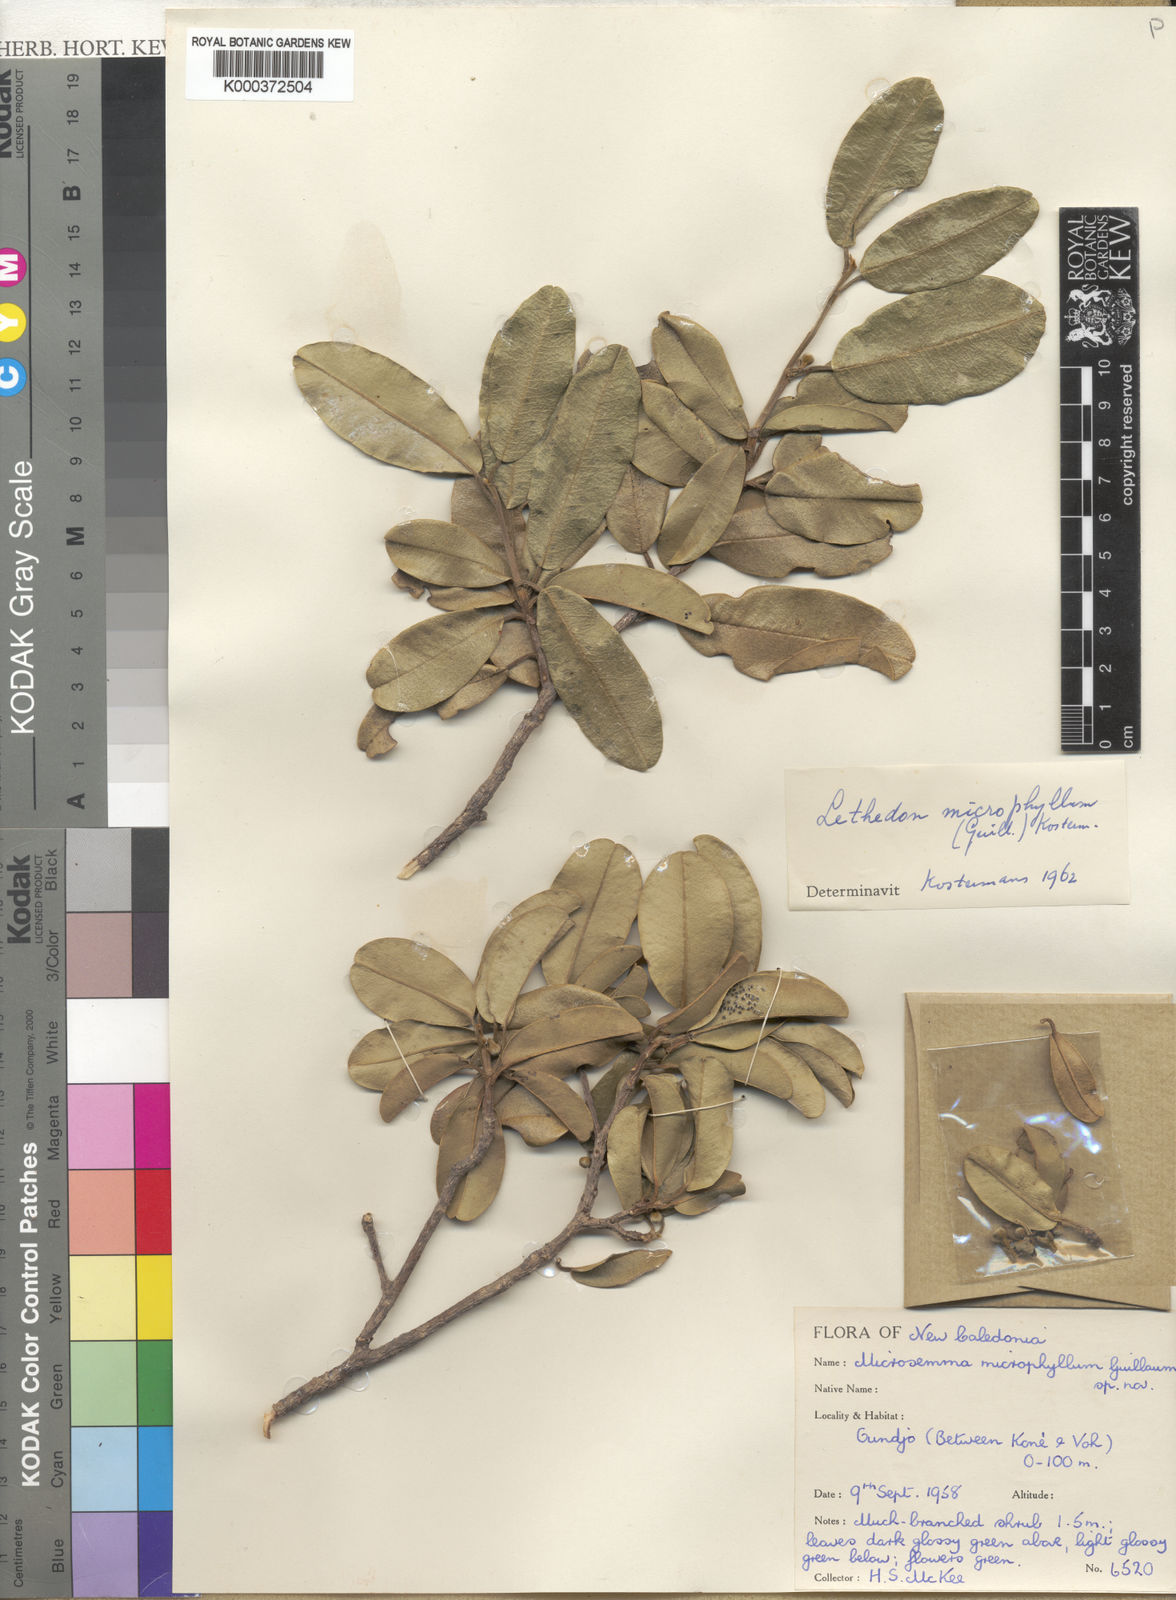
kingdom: Plantae
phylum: Tracheophyta
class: Magnoliopsida
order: Malvales
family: Thymelaeaceae
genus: Lethedon
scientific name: Lethedon microphylla
